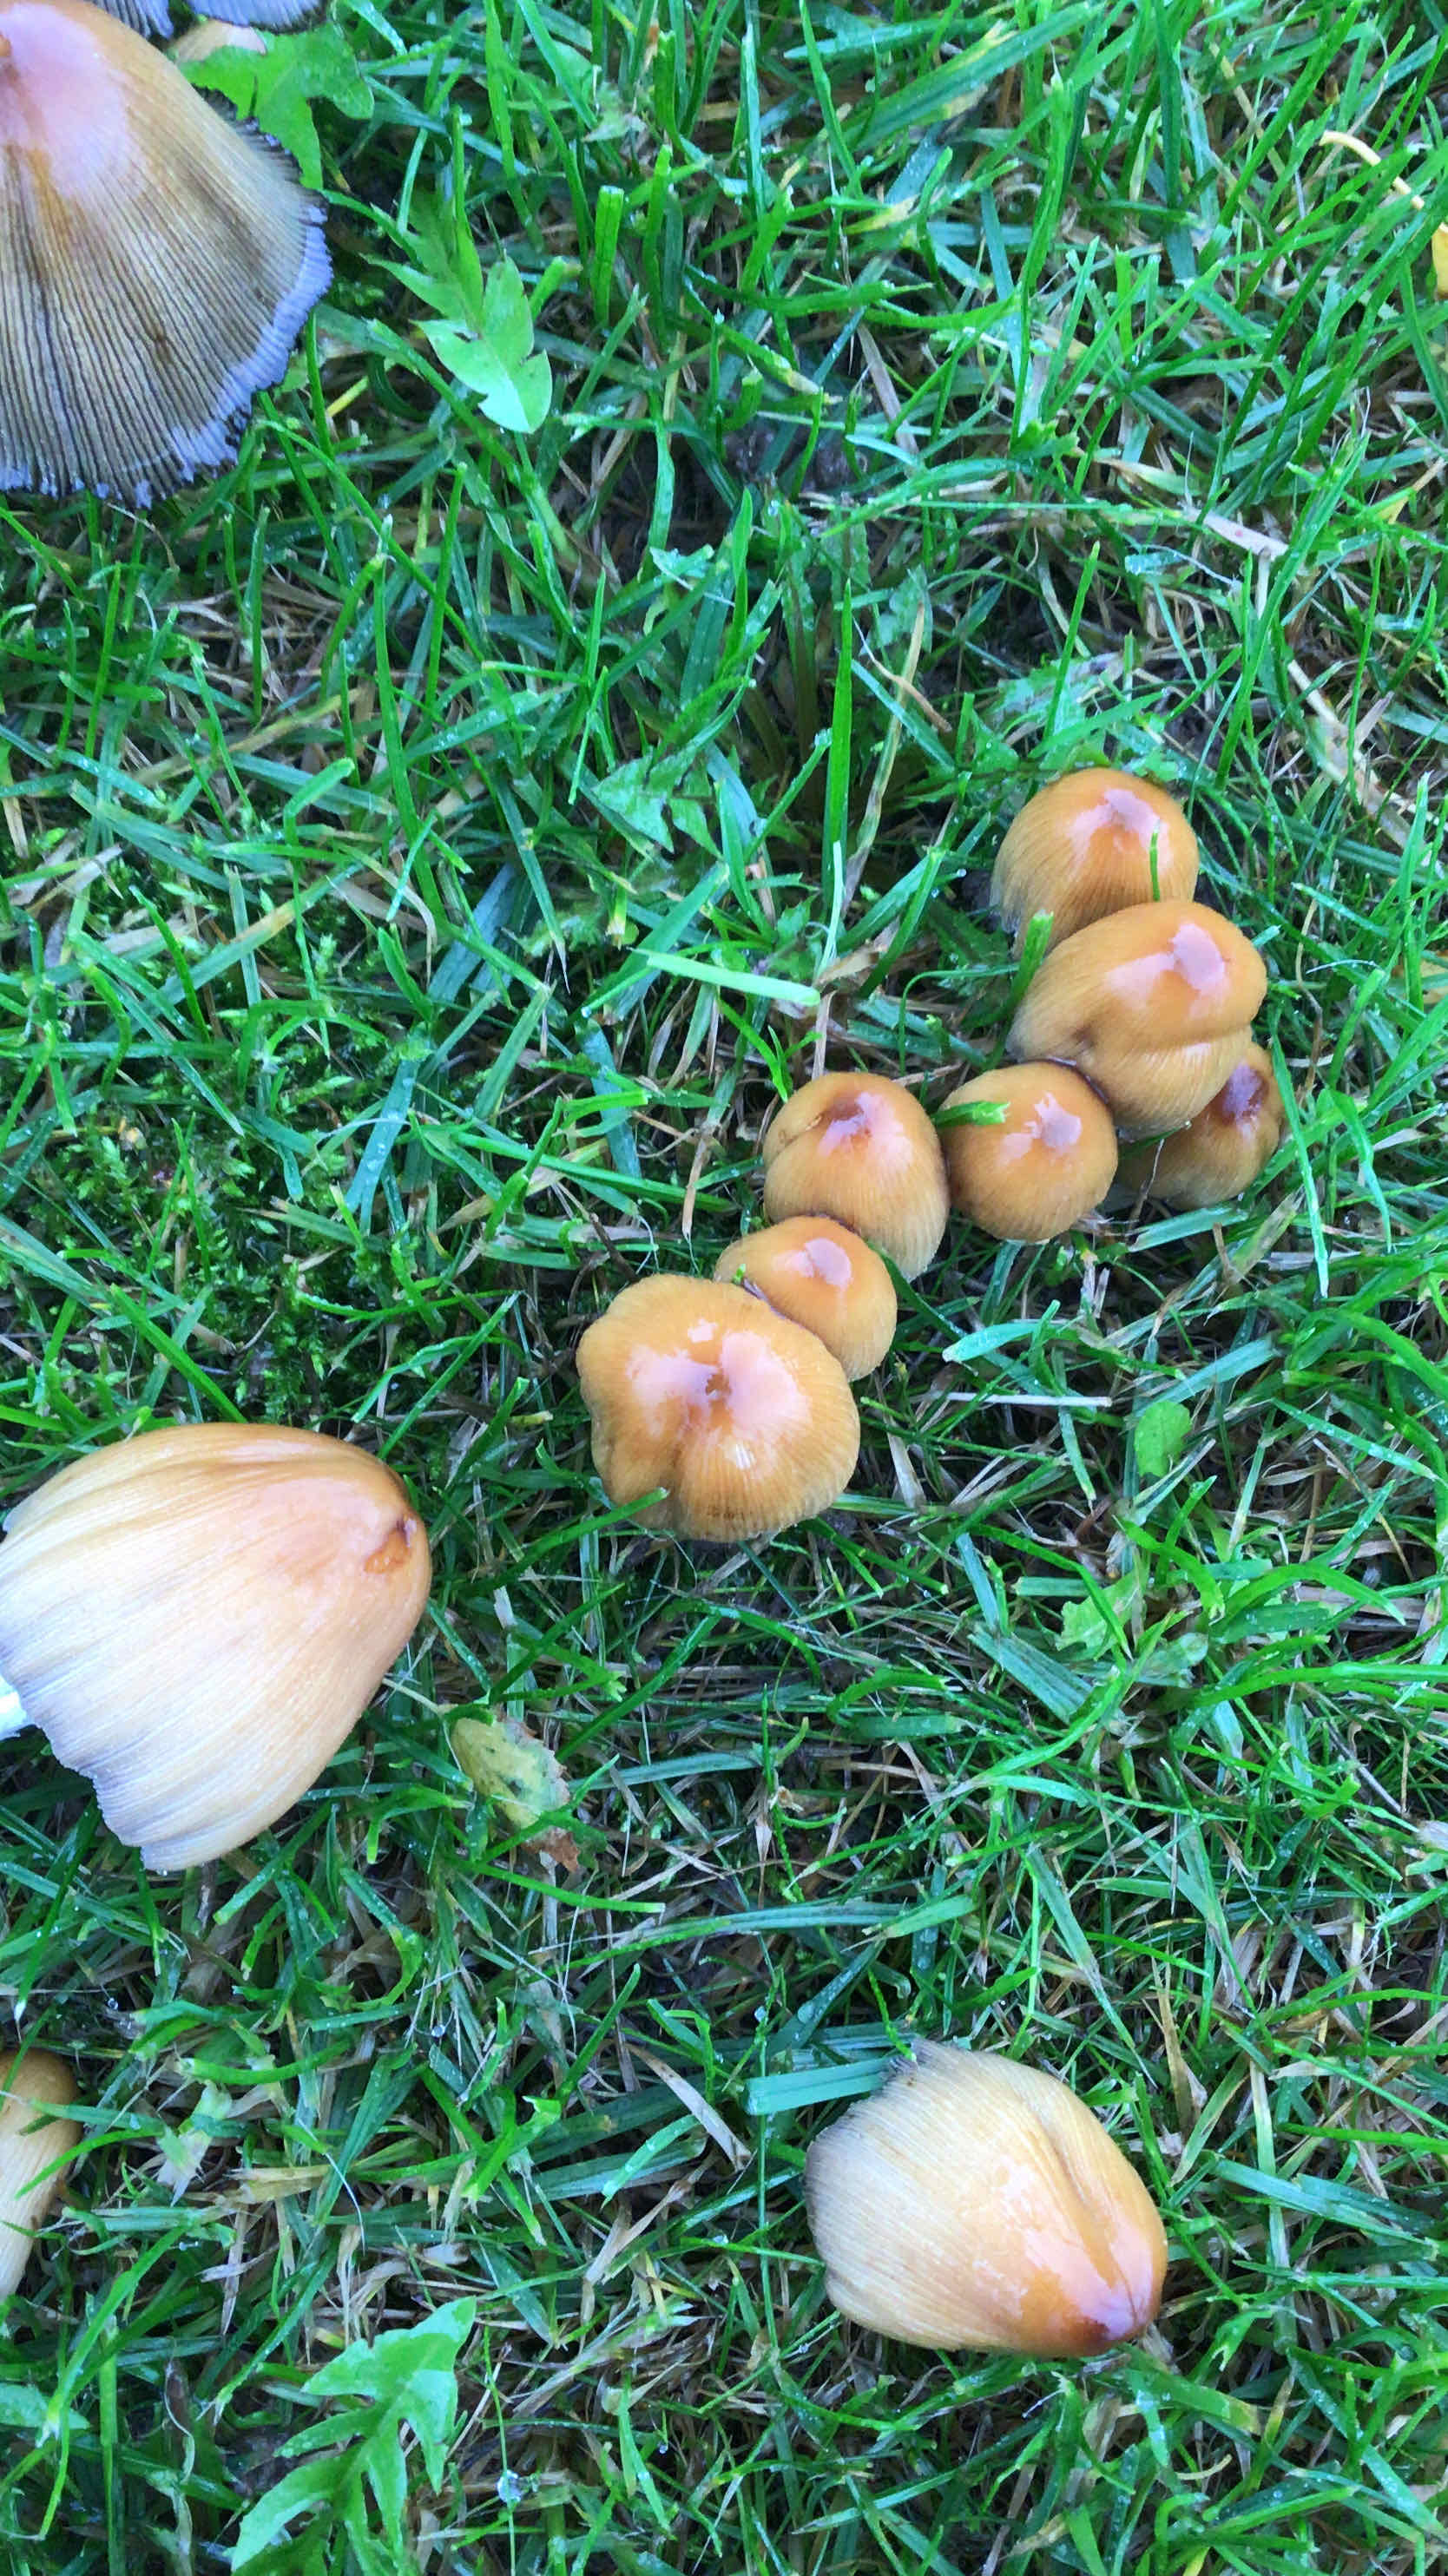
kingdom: Fungi
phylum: Basidiomycota
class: Agaricomycetes
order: Agaricales
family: Psathyrellaceae
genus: Coprinellus
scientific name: Coprinellus
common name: blækhat
